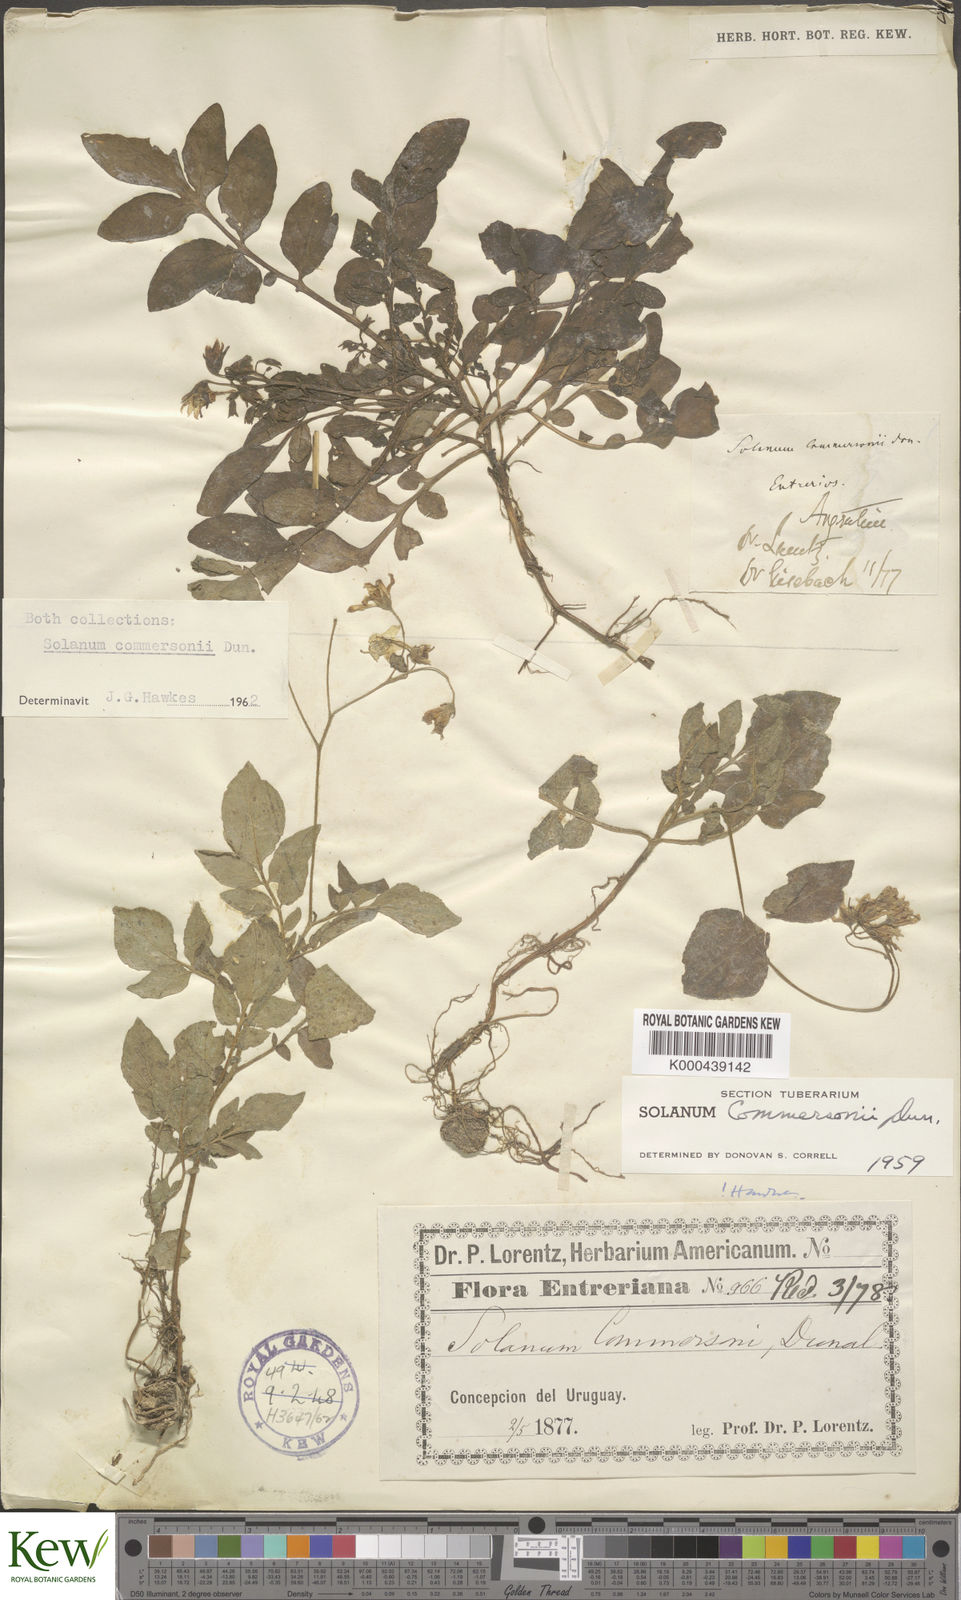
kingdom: Plantae
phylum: Tracheophyta
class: Magnoliopsida
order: Solanales
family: Solanaceae
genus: Solanum
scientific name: Solanum commersonii
